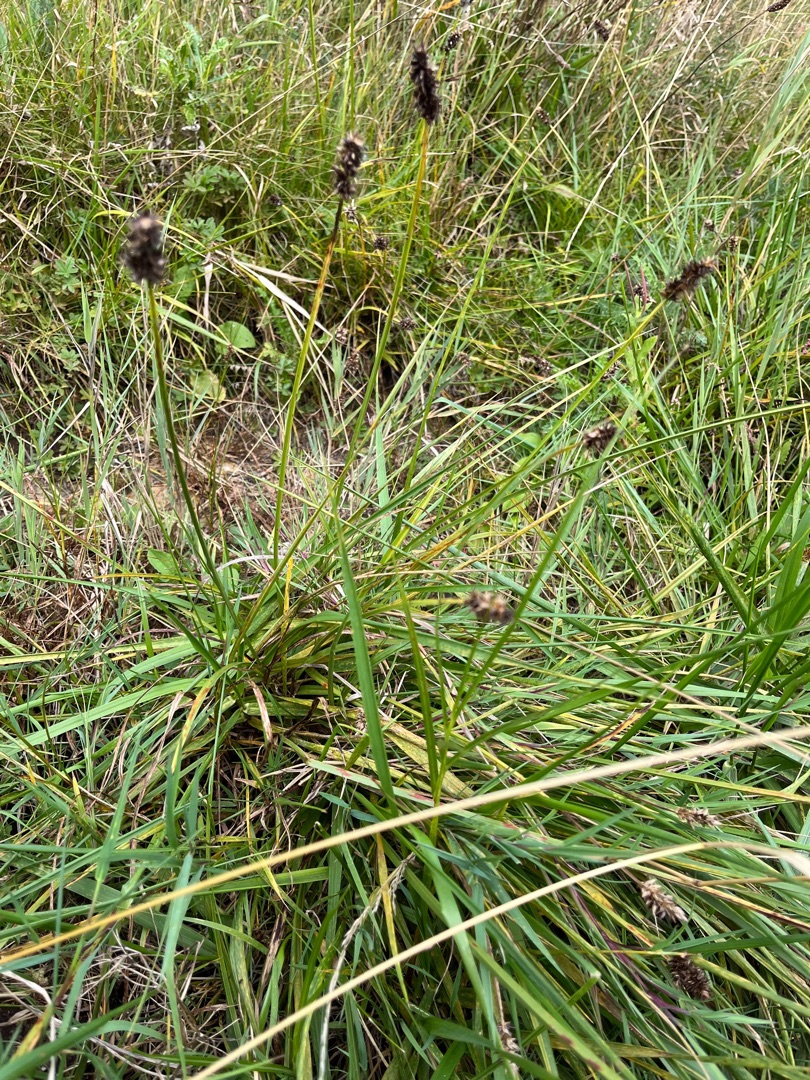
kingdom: Plantae
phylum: Tracheophyta
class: Liliopsida
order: Poales
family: Cyperaceae
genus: Carex
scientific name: Carex otrubae
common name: Sylt-star
